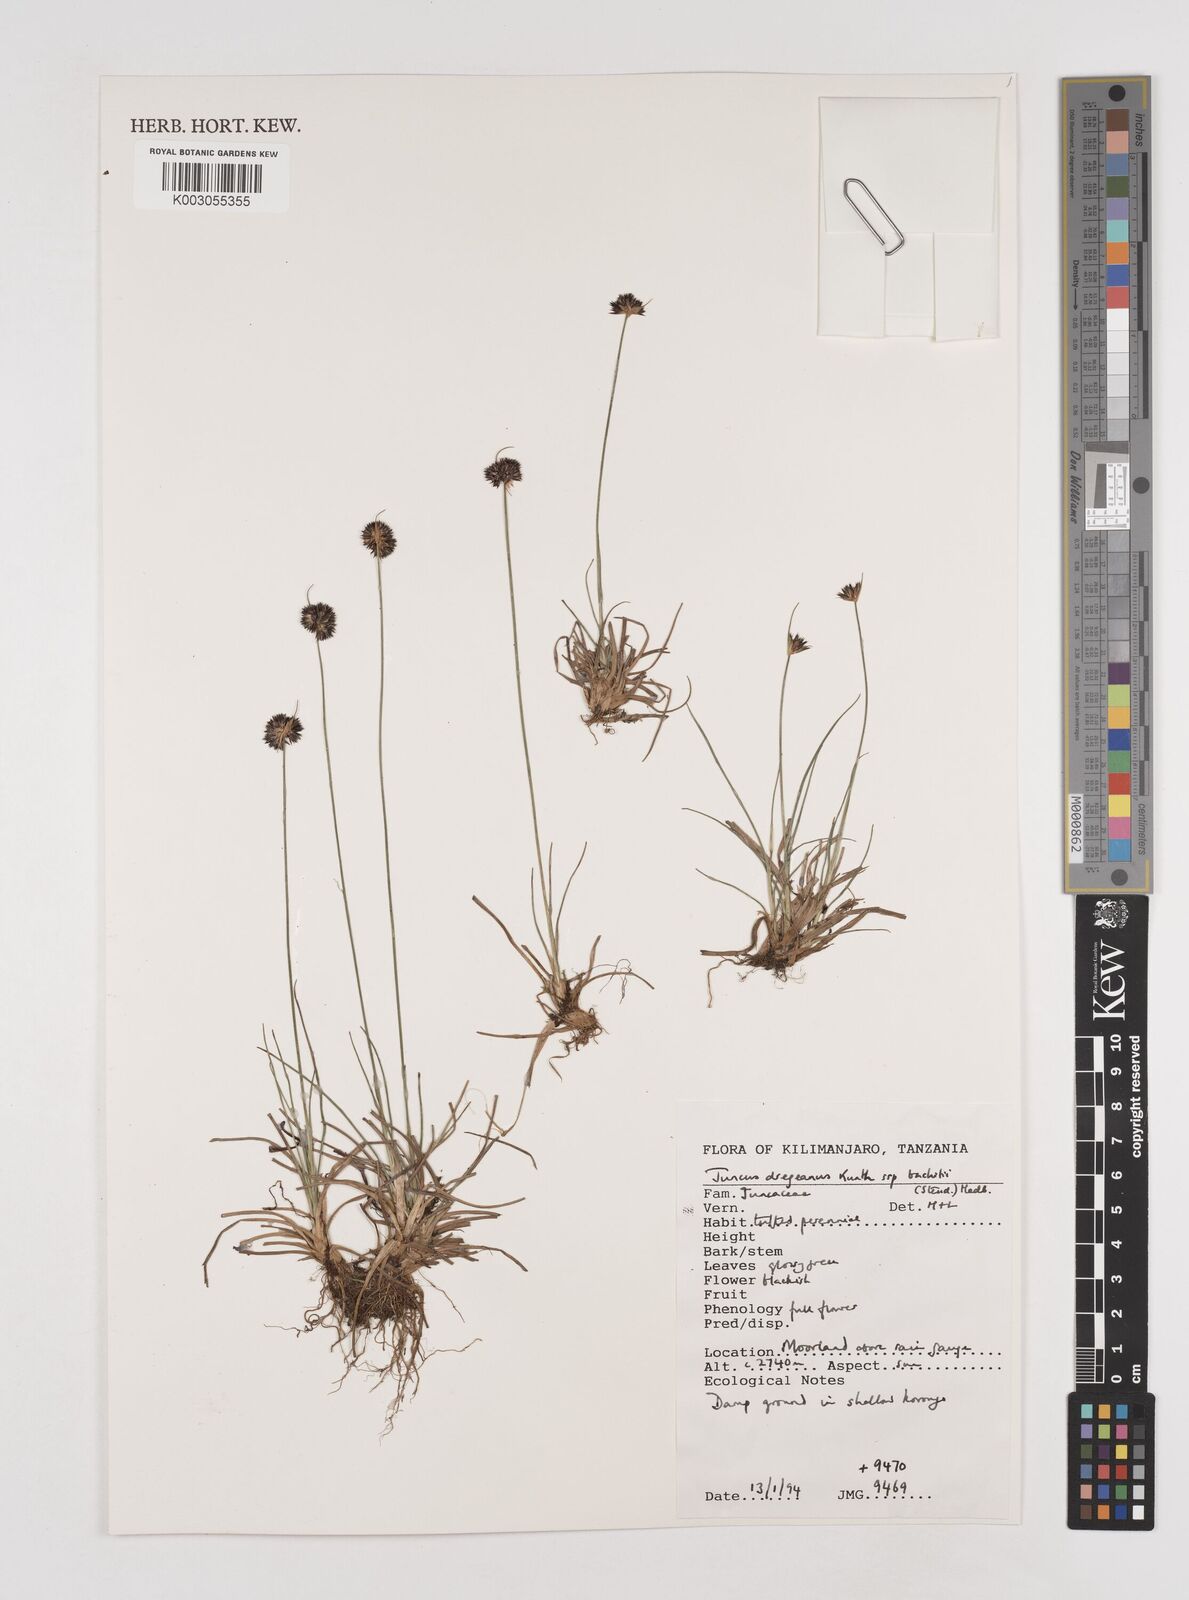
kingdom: Plantae
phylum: Tracheophyta
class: Liliopsida
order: Poales
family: Juncaceae
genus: Juncus
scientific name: Juncus dregeanus
